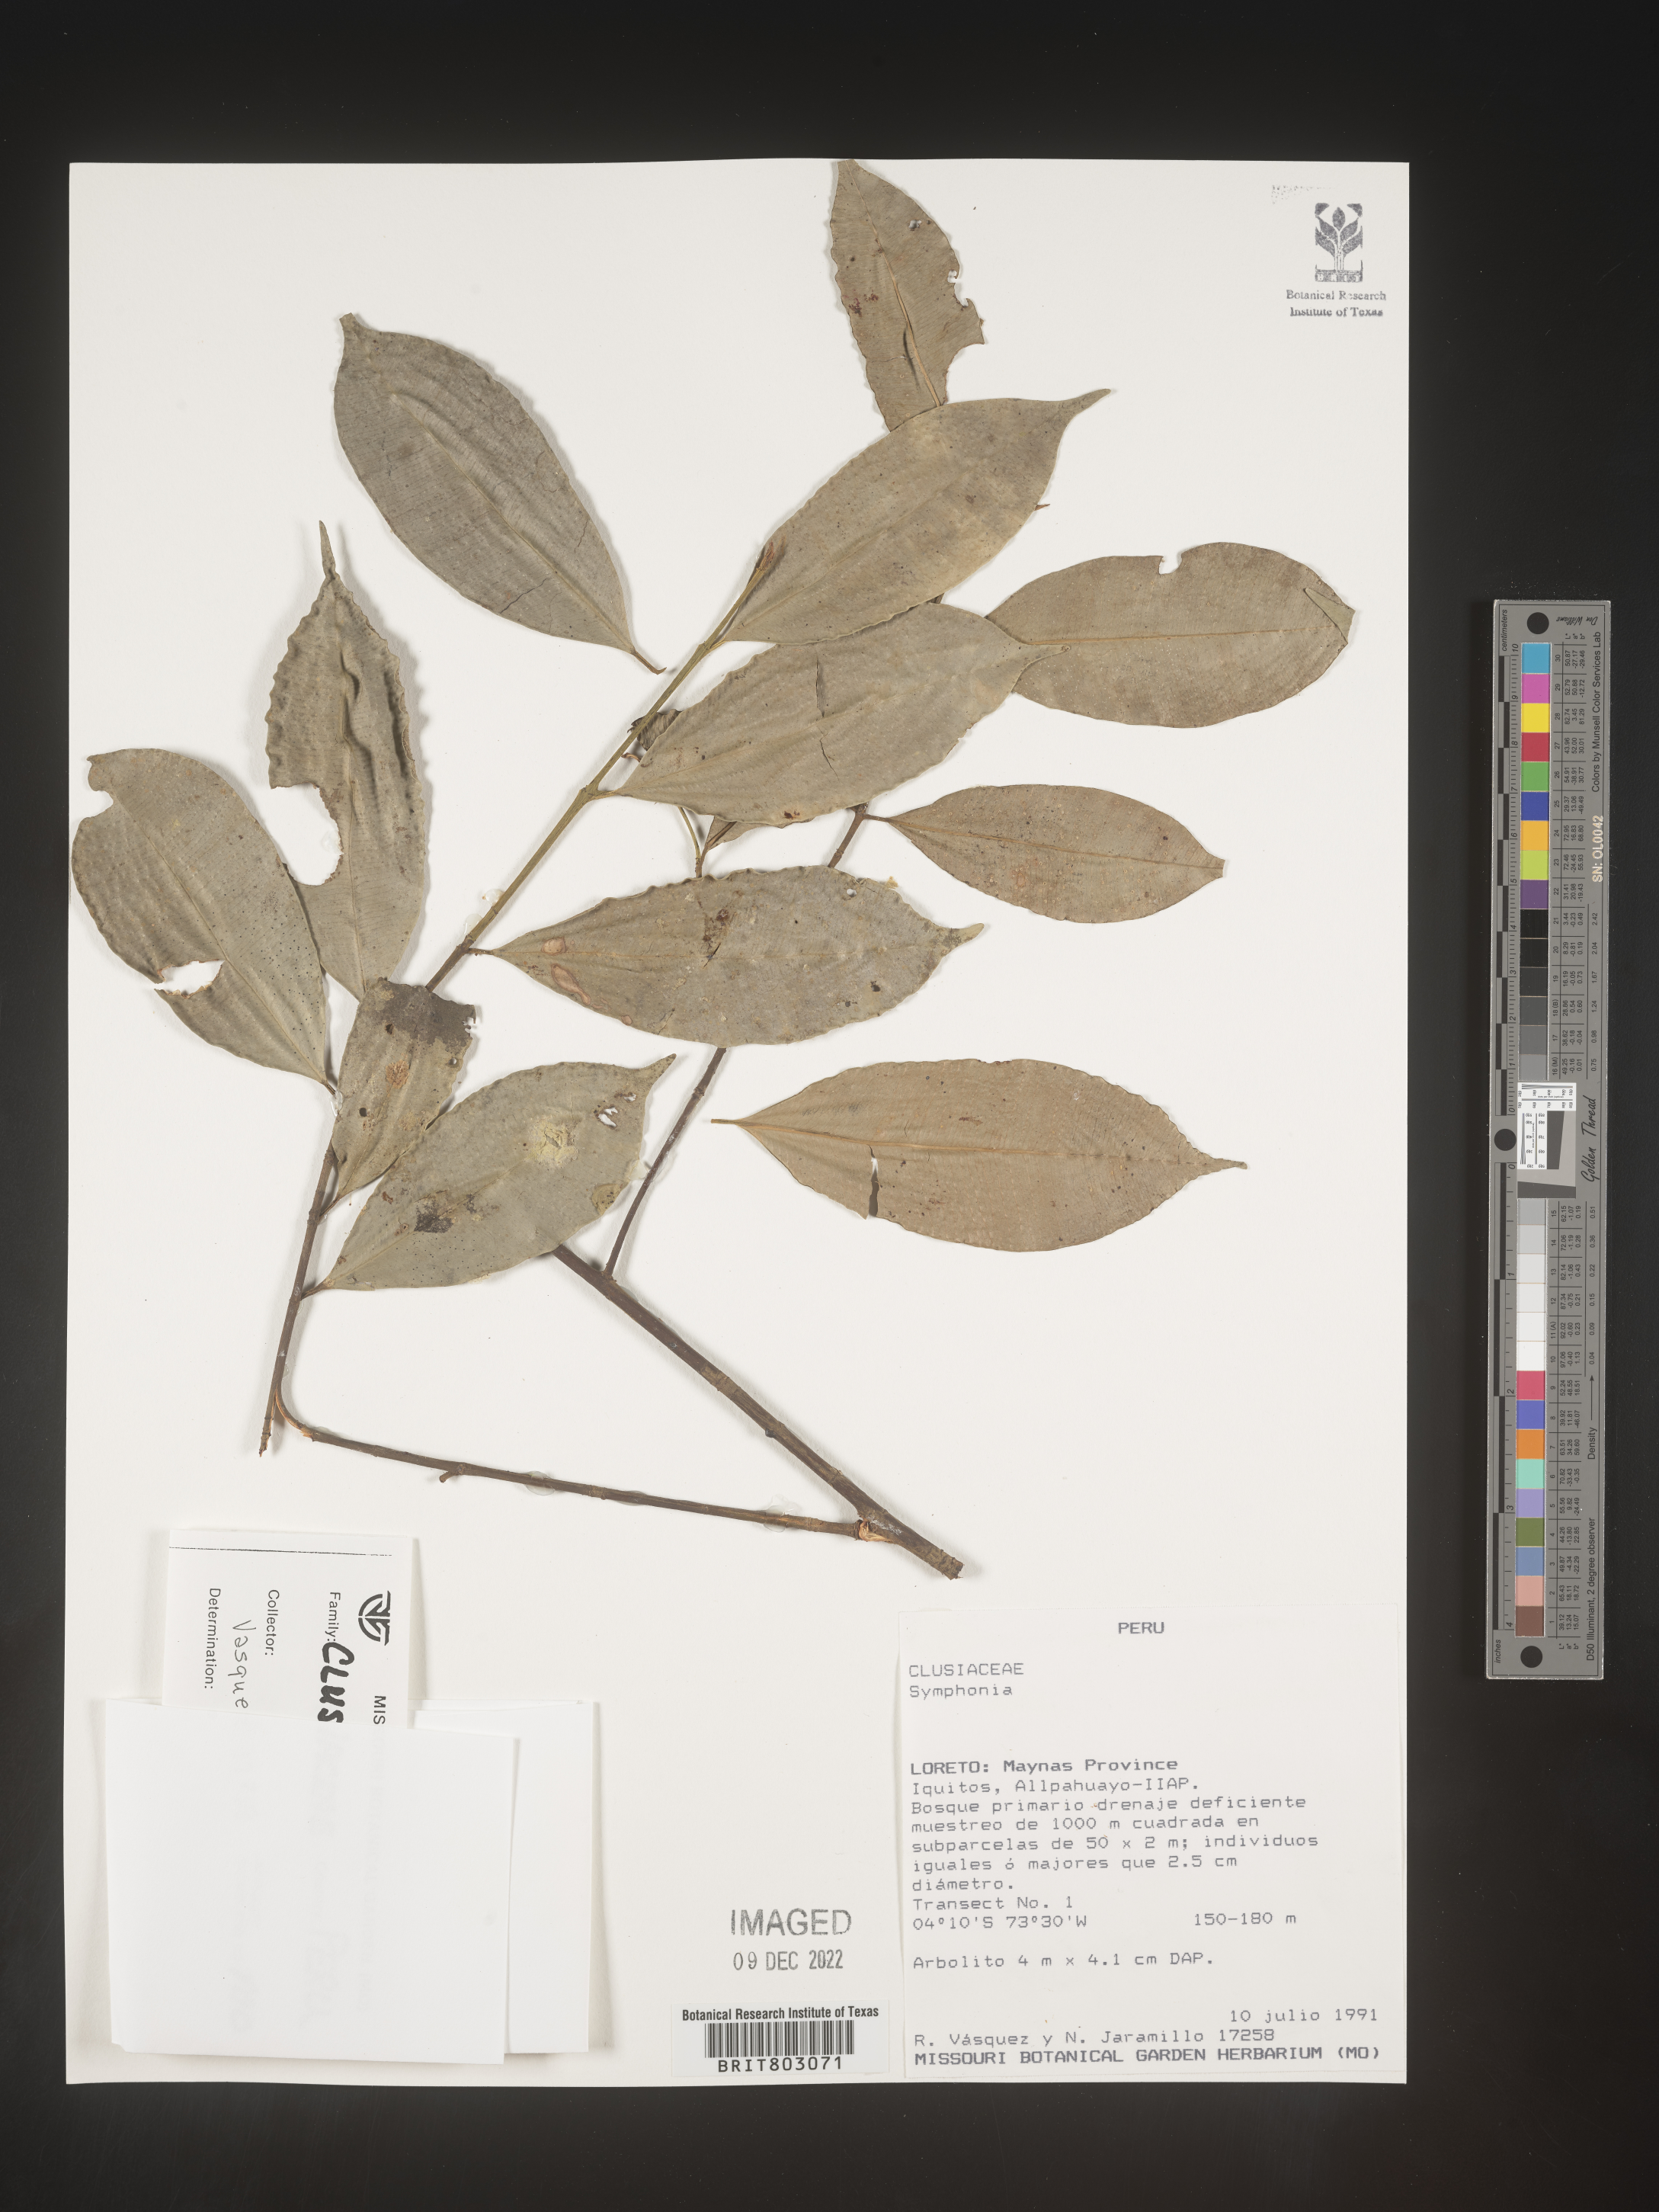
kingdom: Plantae
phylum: Tracheophyta
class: Magnoliopsida
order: Malpighiales
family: Clusiaceae
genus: Symphonia
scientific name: Symphonia
